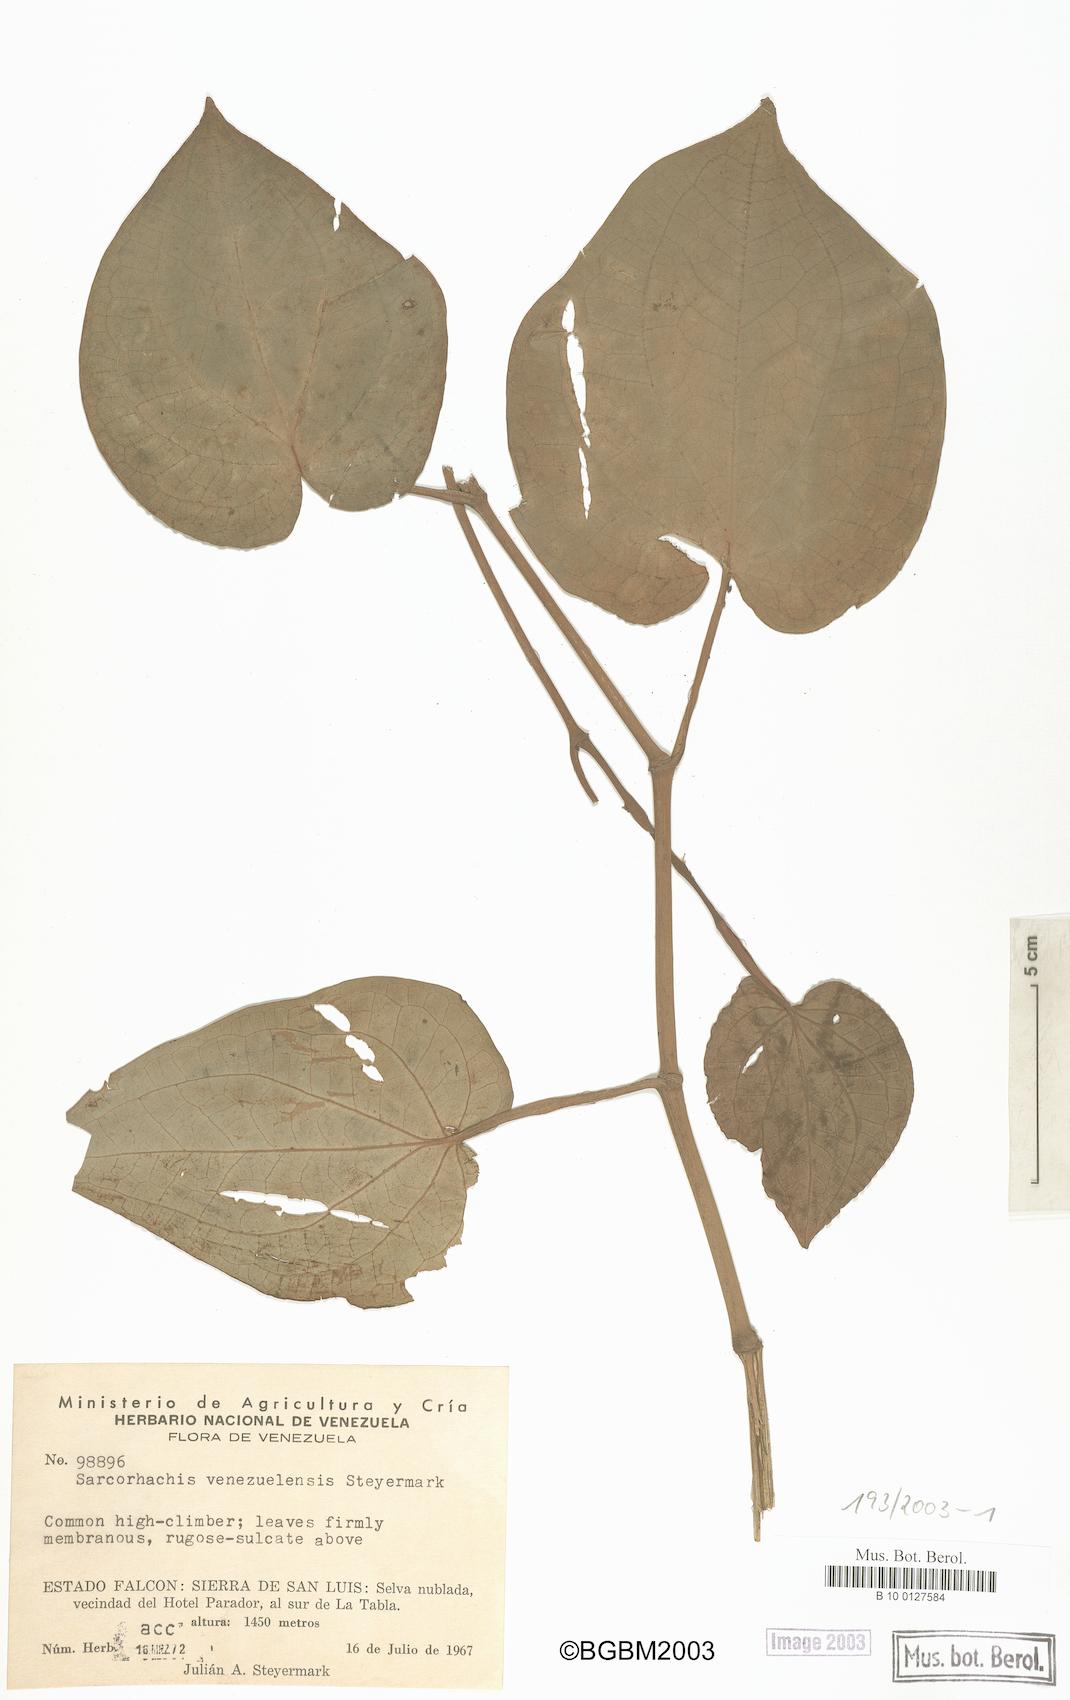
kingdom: Plantae
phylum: Tracheophyta
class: Magnoliopsida
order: Piperales
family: Piperaceae
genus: Manekia
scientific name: Manekia
